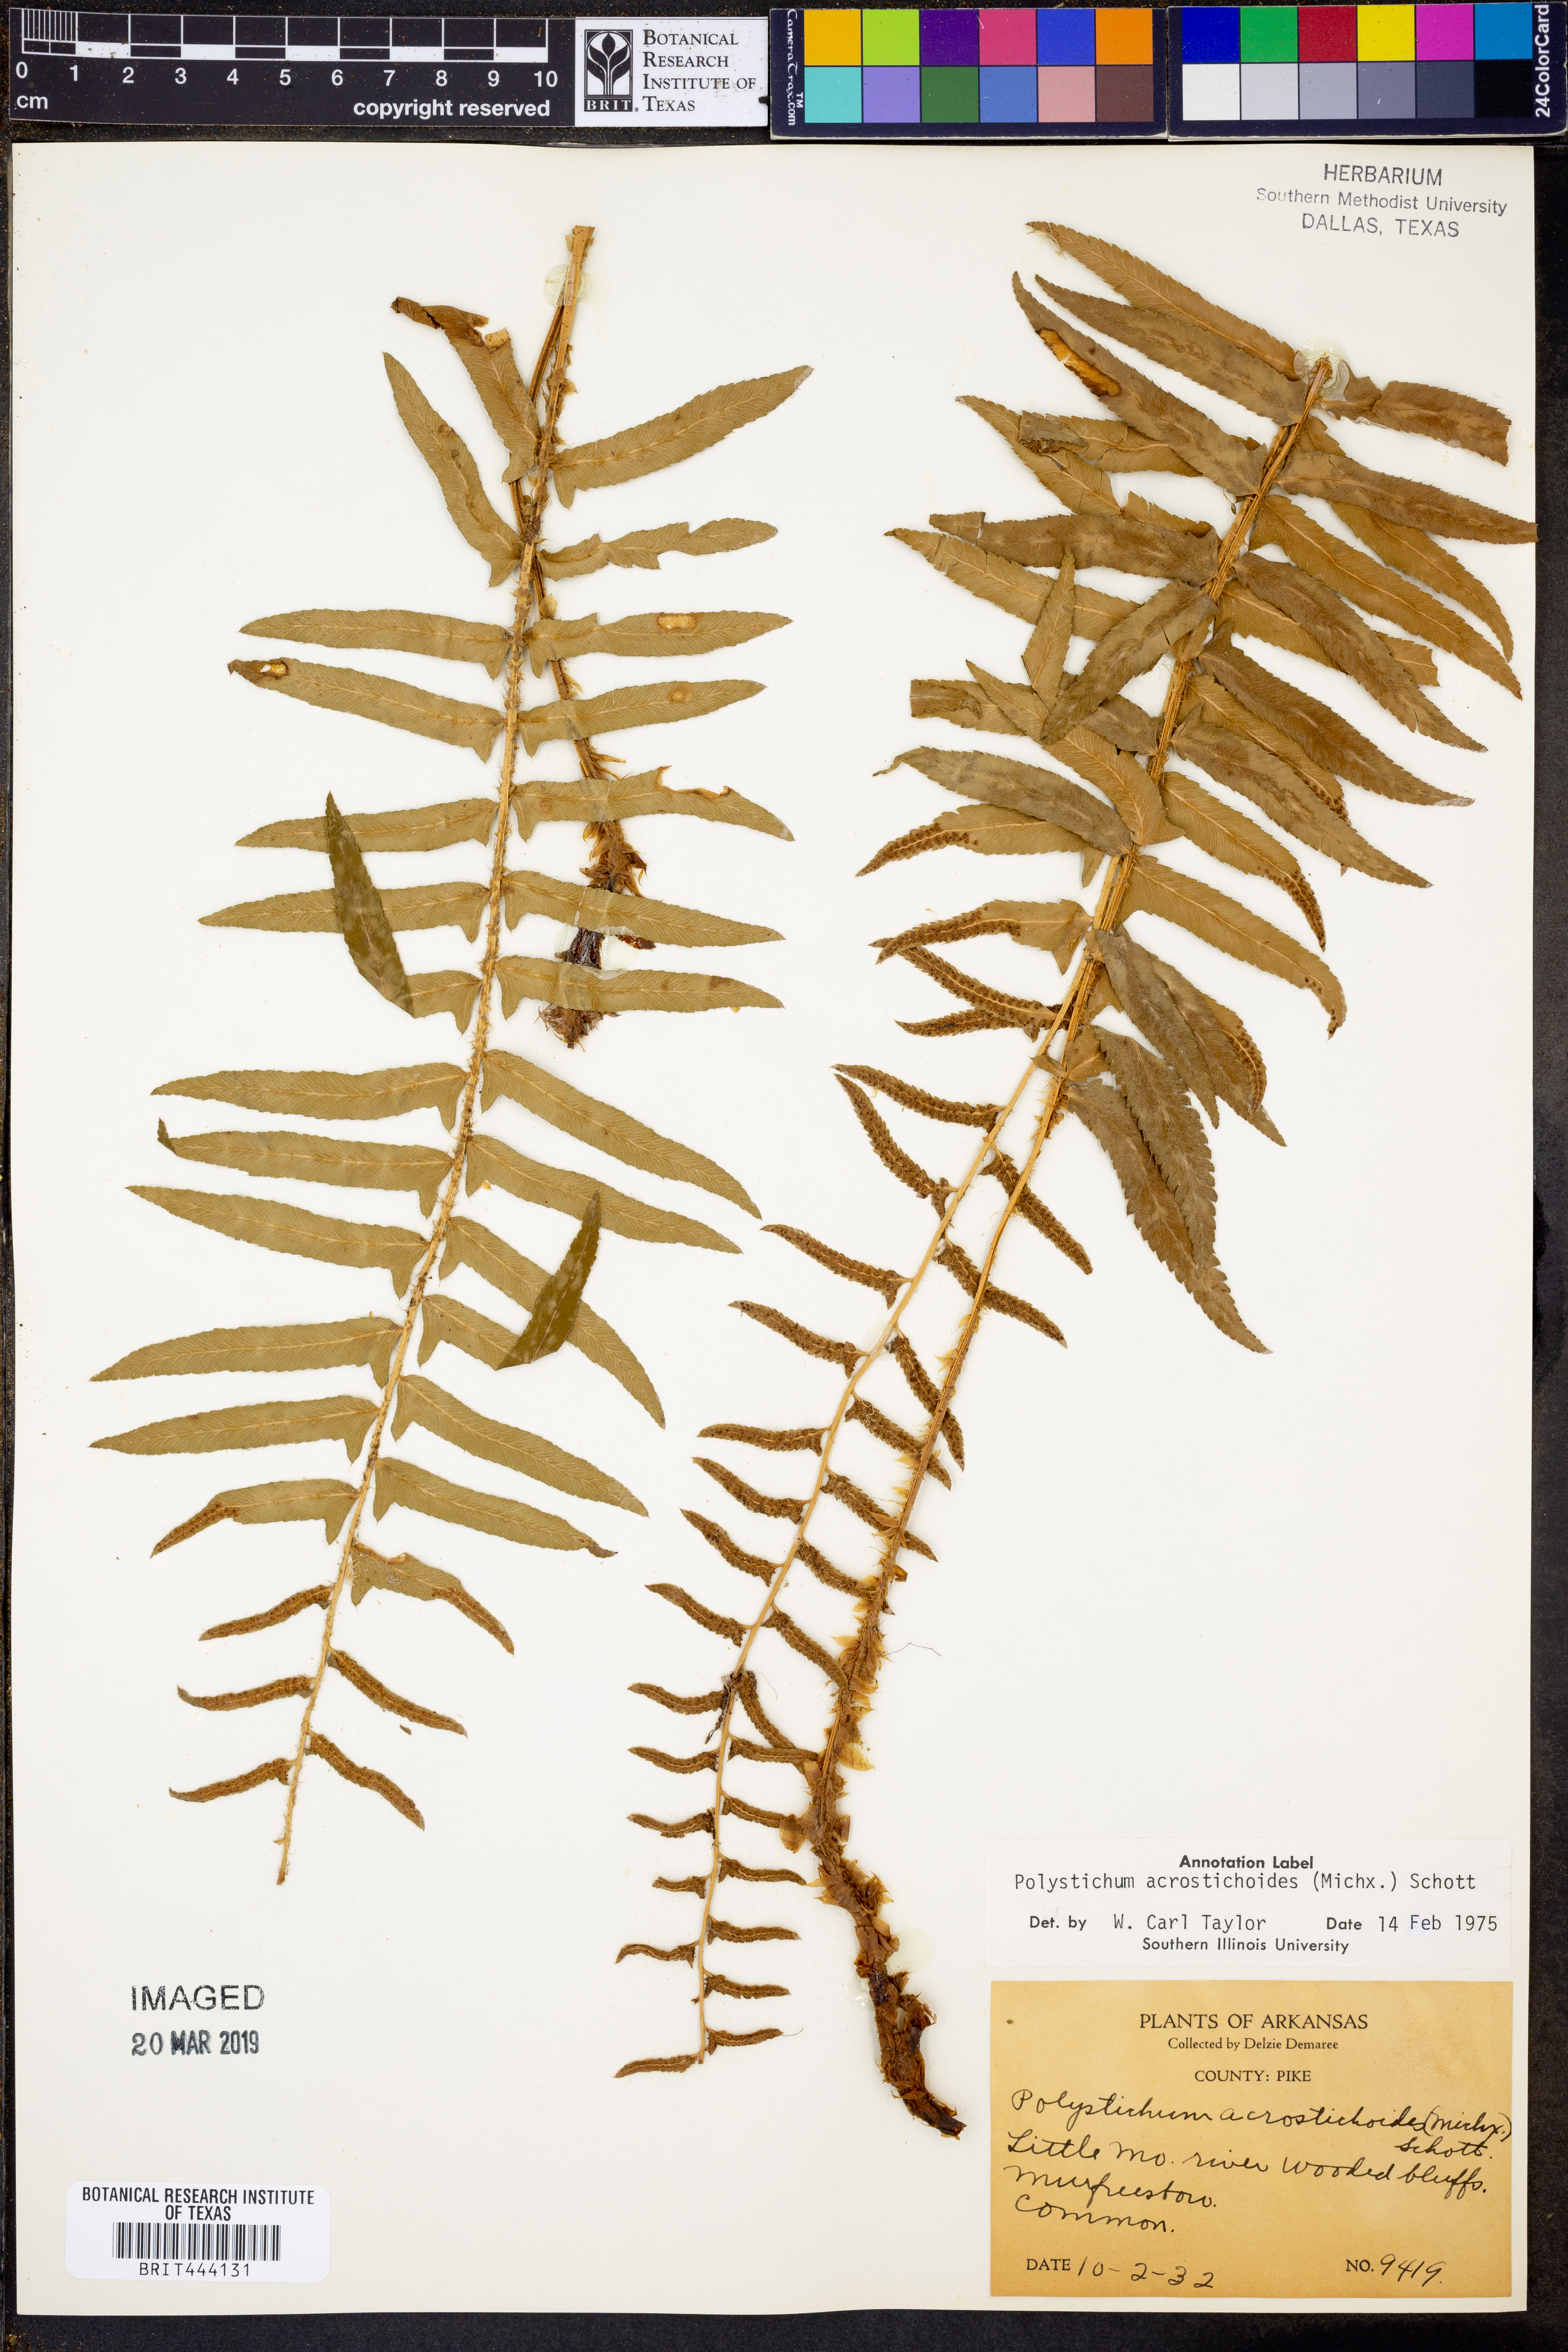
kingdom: Plantae
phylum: Tracheophyta
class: Polypodiopsida
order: Polypodiales
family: Dryopteridaceae
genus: Polystichum
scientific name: Polystichum acrostichoides
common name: Christmas fern
